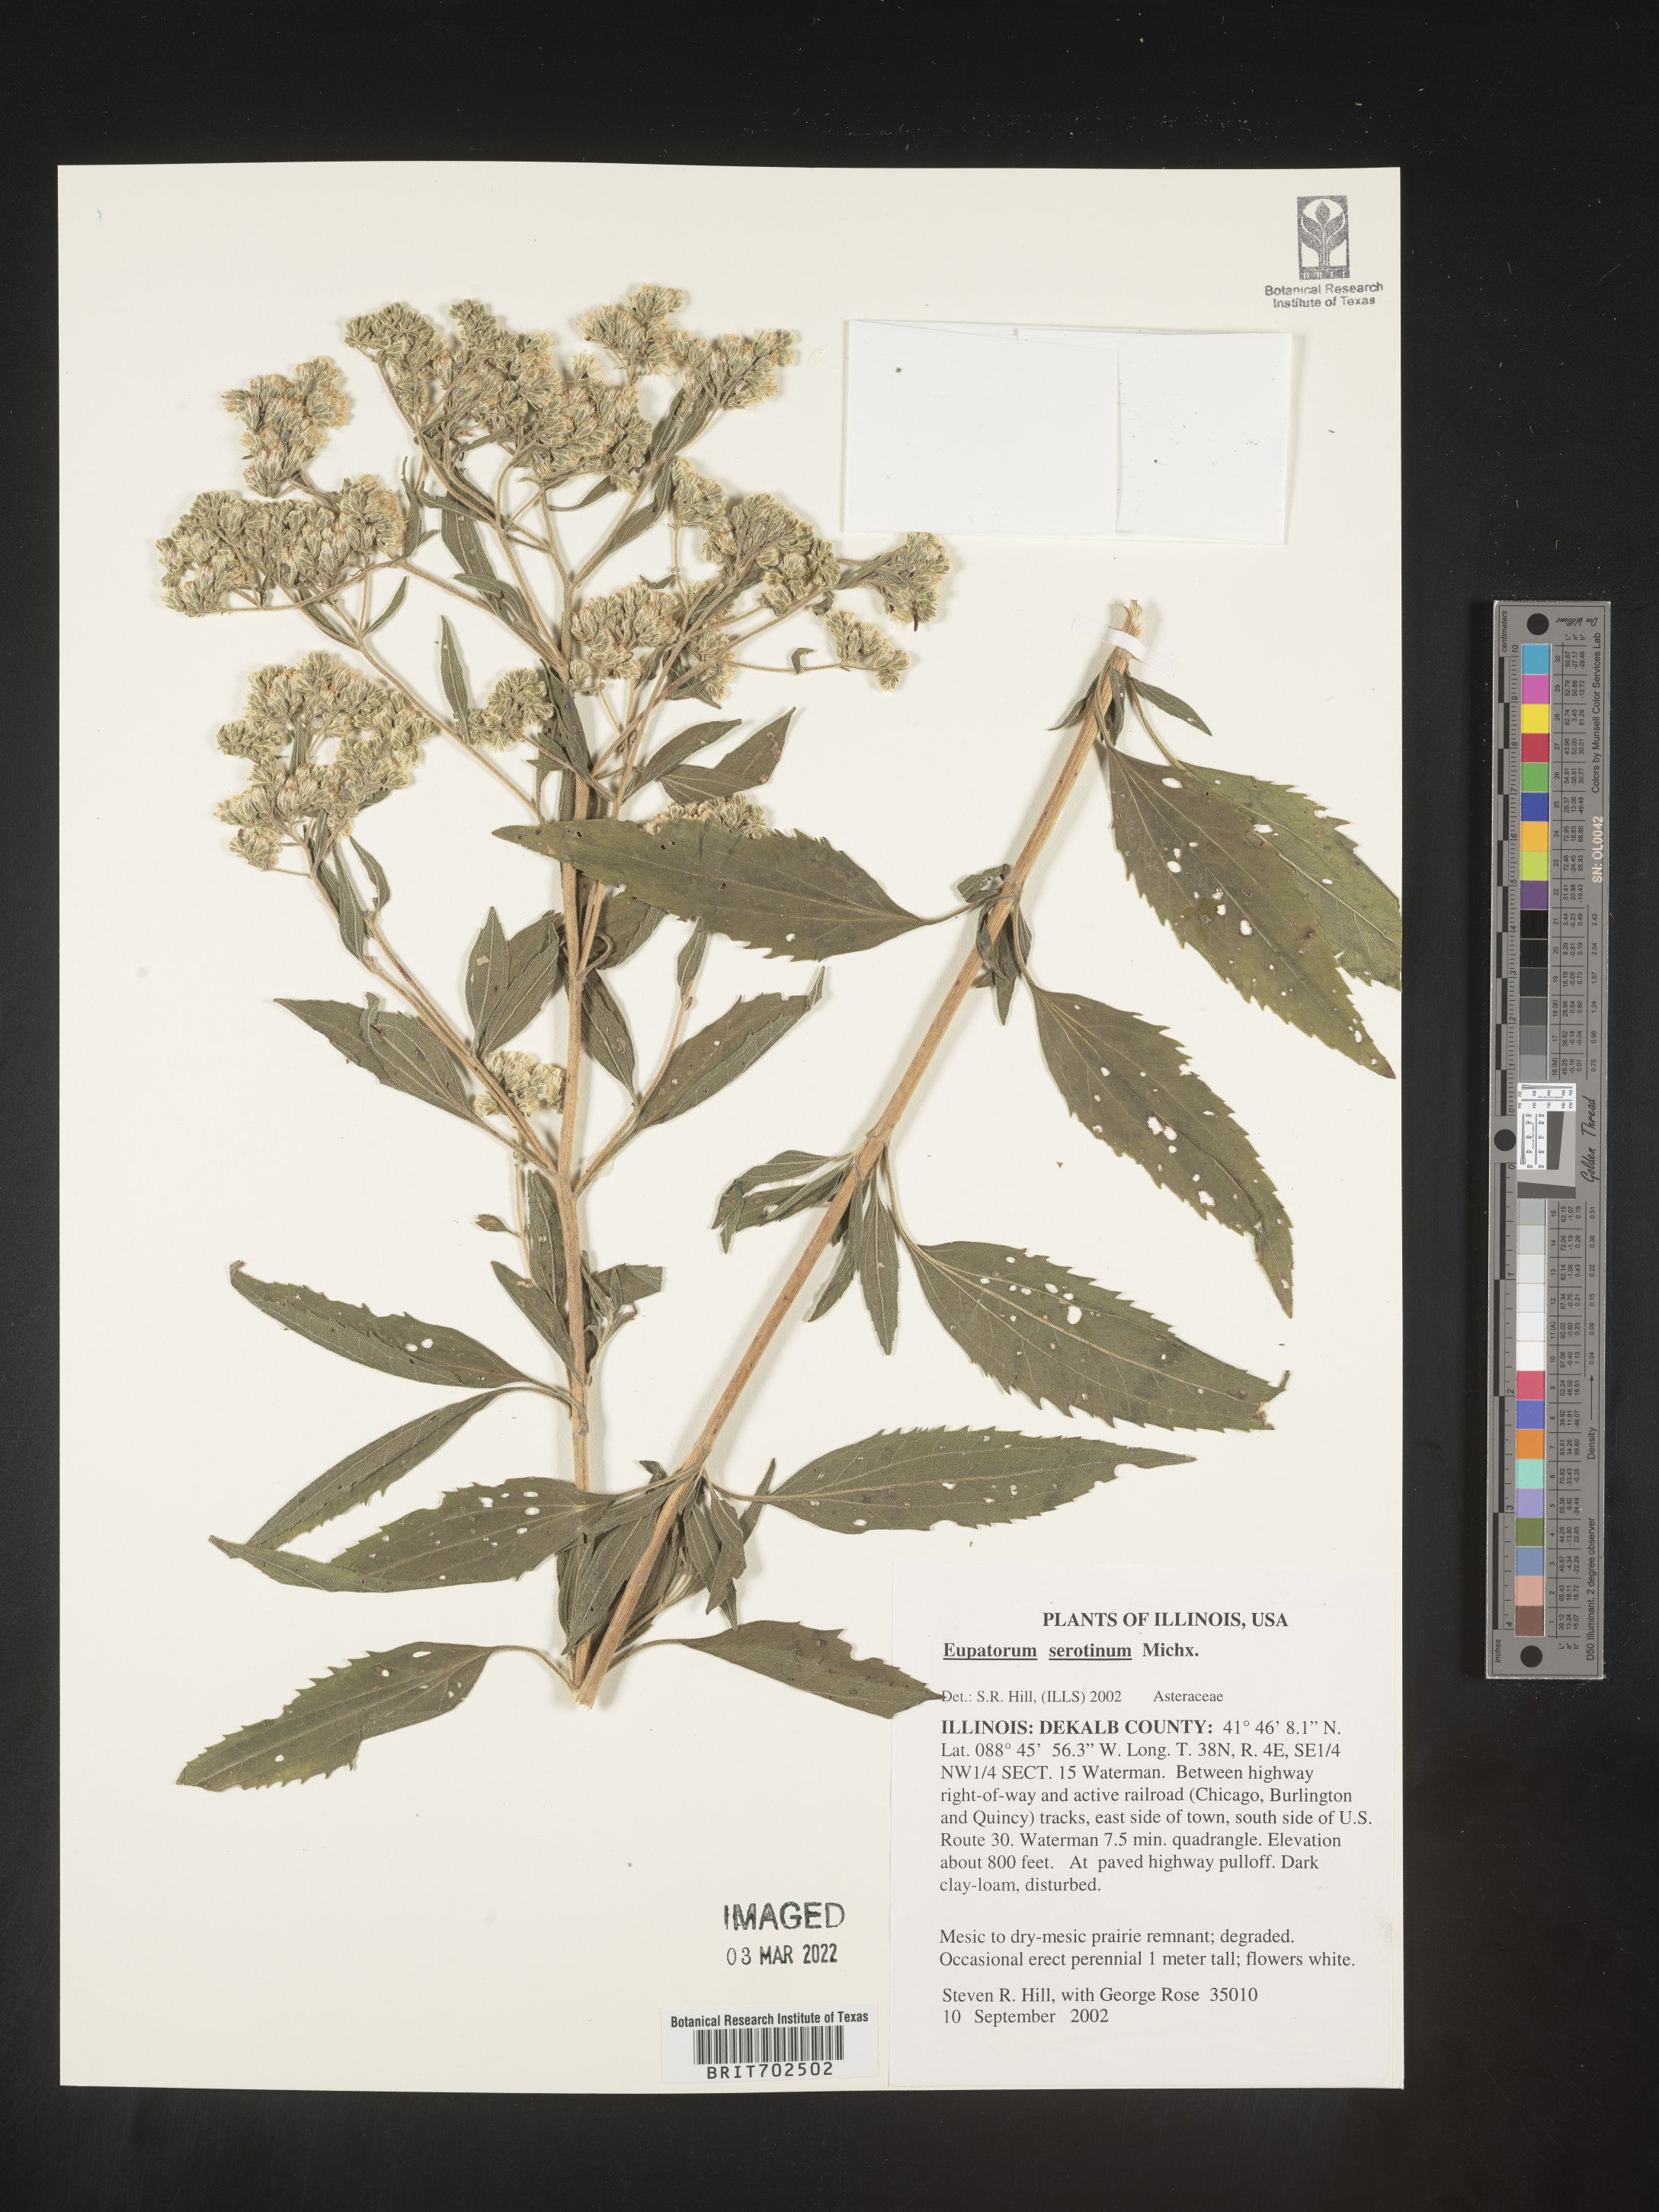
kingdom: Plantae
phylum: Tracheophyta
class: Magnoliopsida
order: Asterales
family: Asteraceae
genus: Eupatorium
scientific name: Eupatorium serotinum
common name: Late boneset
